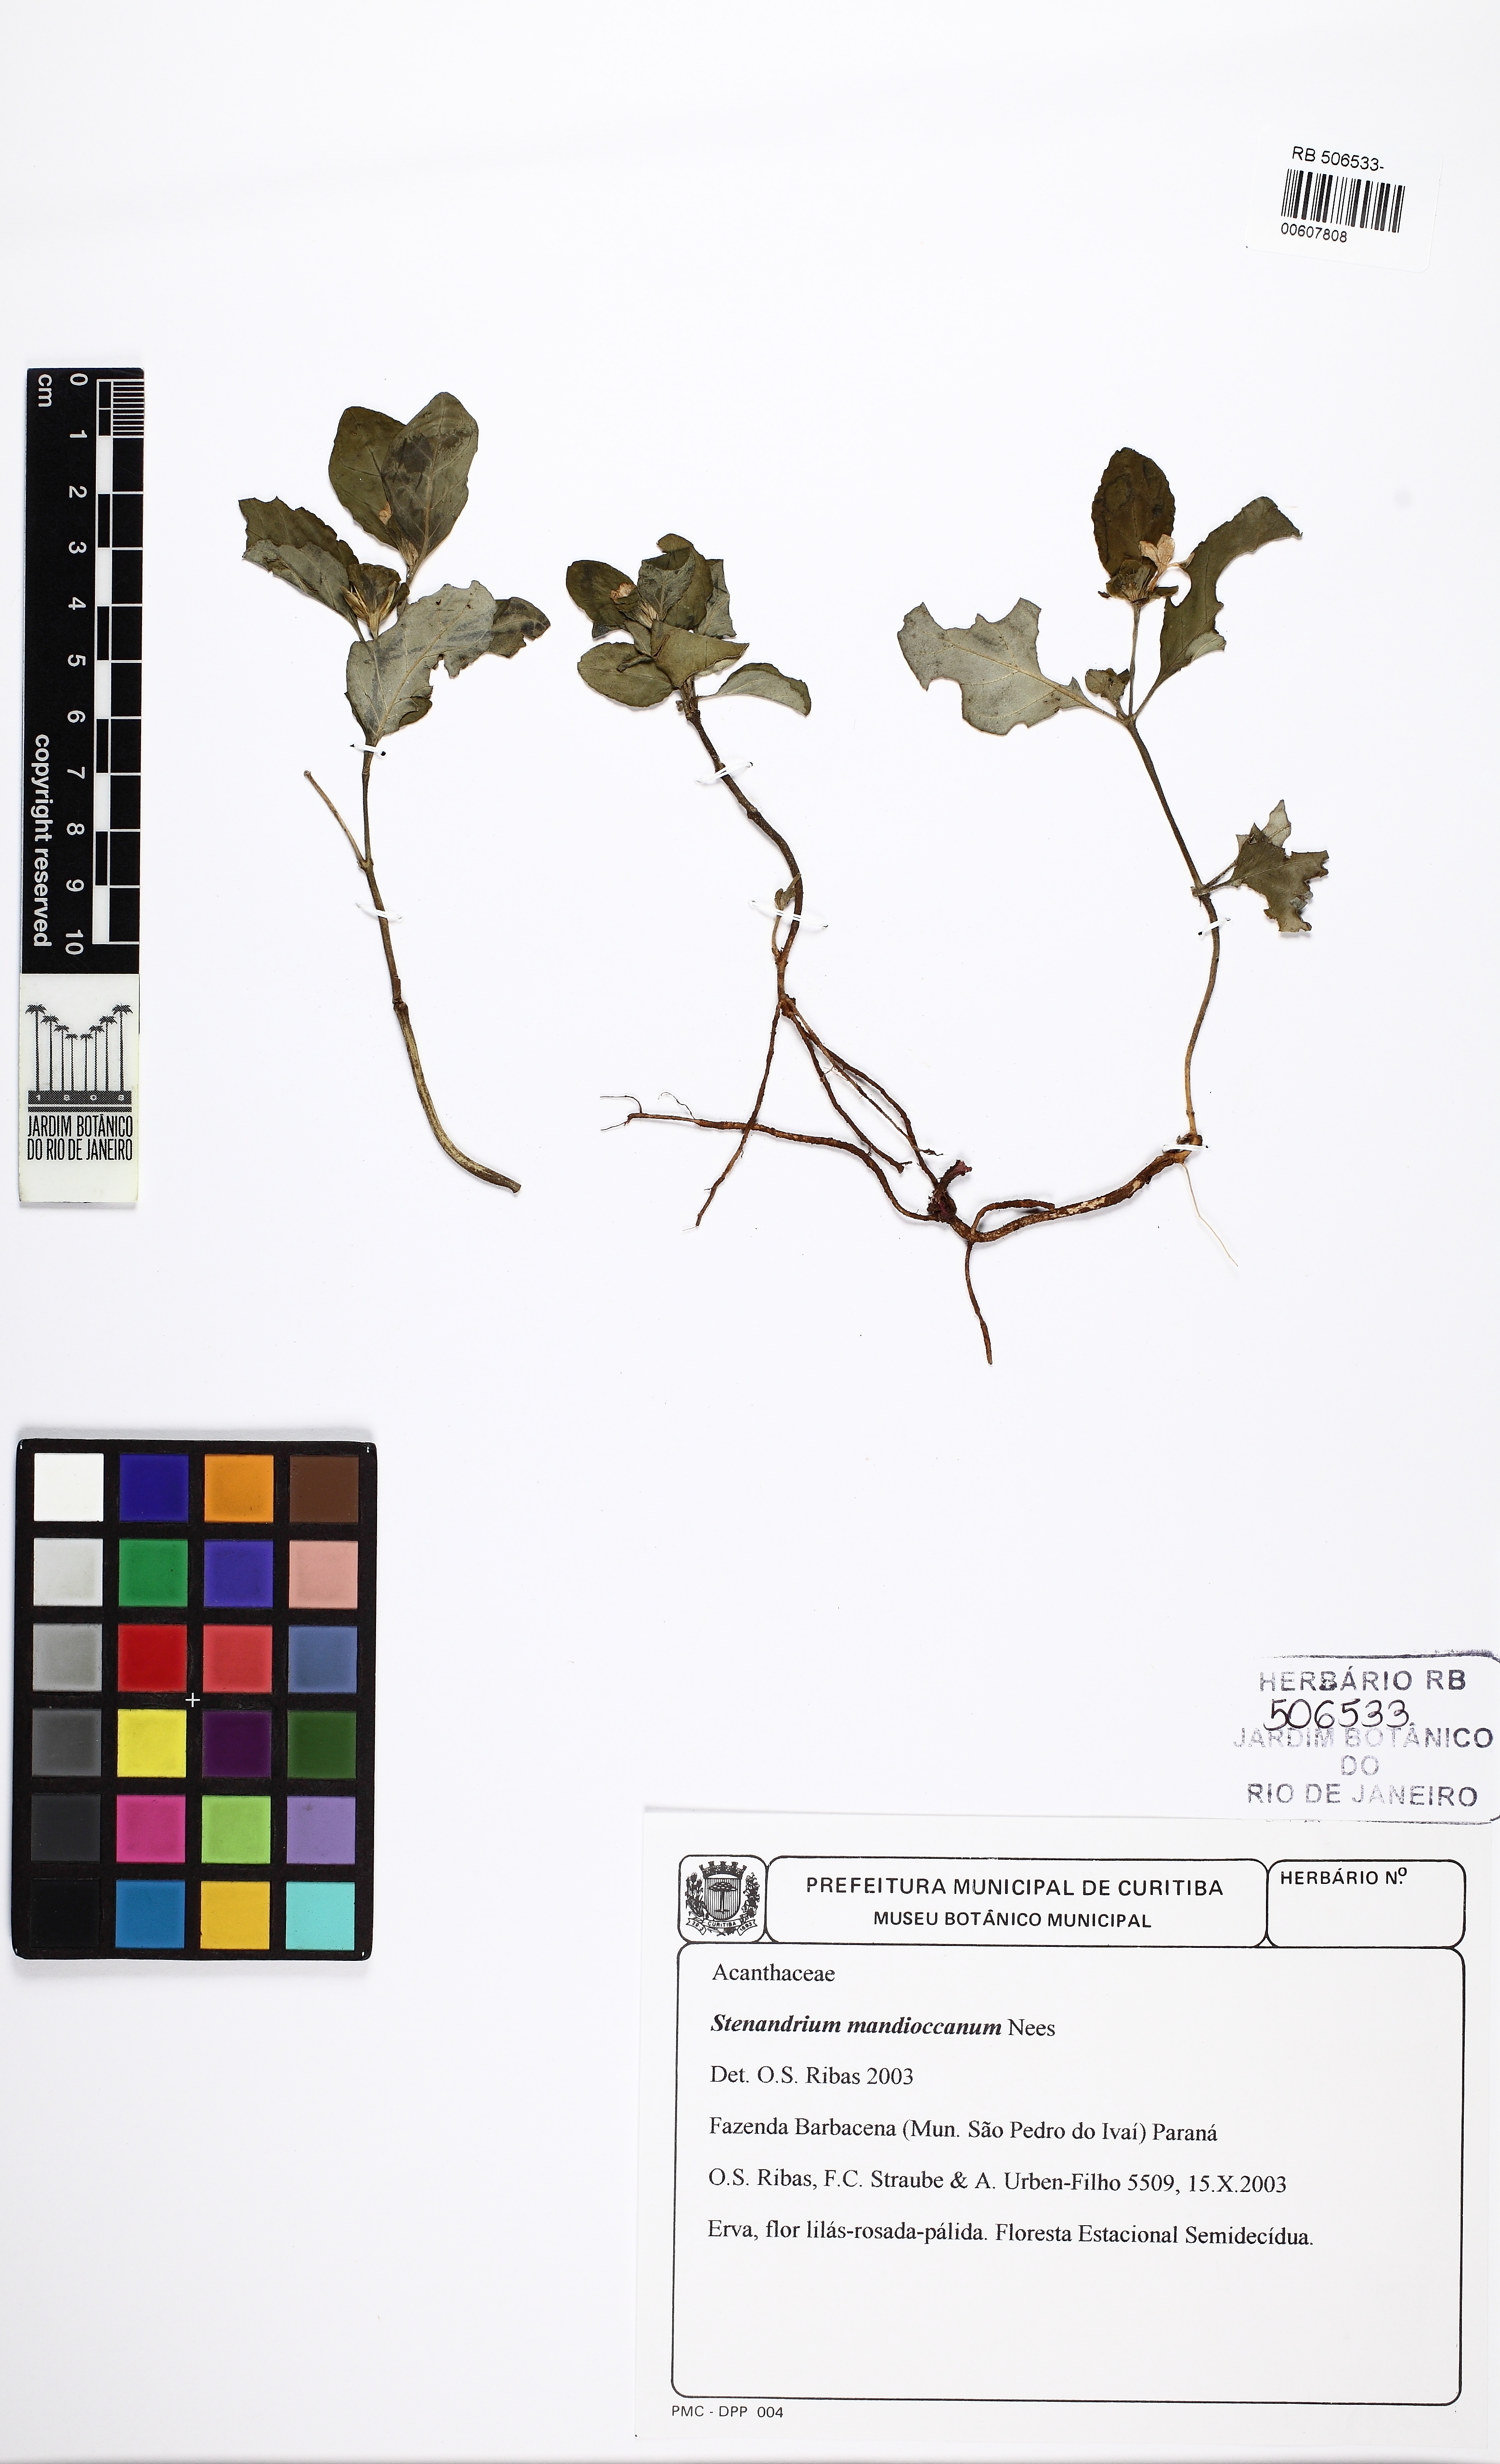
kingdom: Plantae
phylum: Tracheophyta
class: Magnoliopsida
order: Lamiales
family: Acanthaceae
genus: Stenandrium
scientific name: Stenandrium mandioccanum
